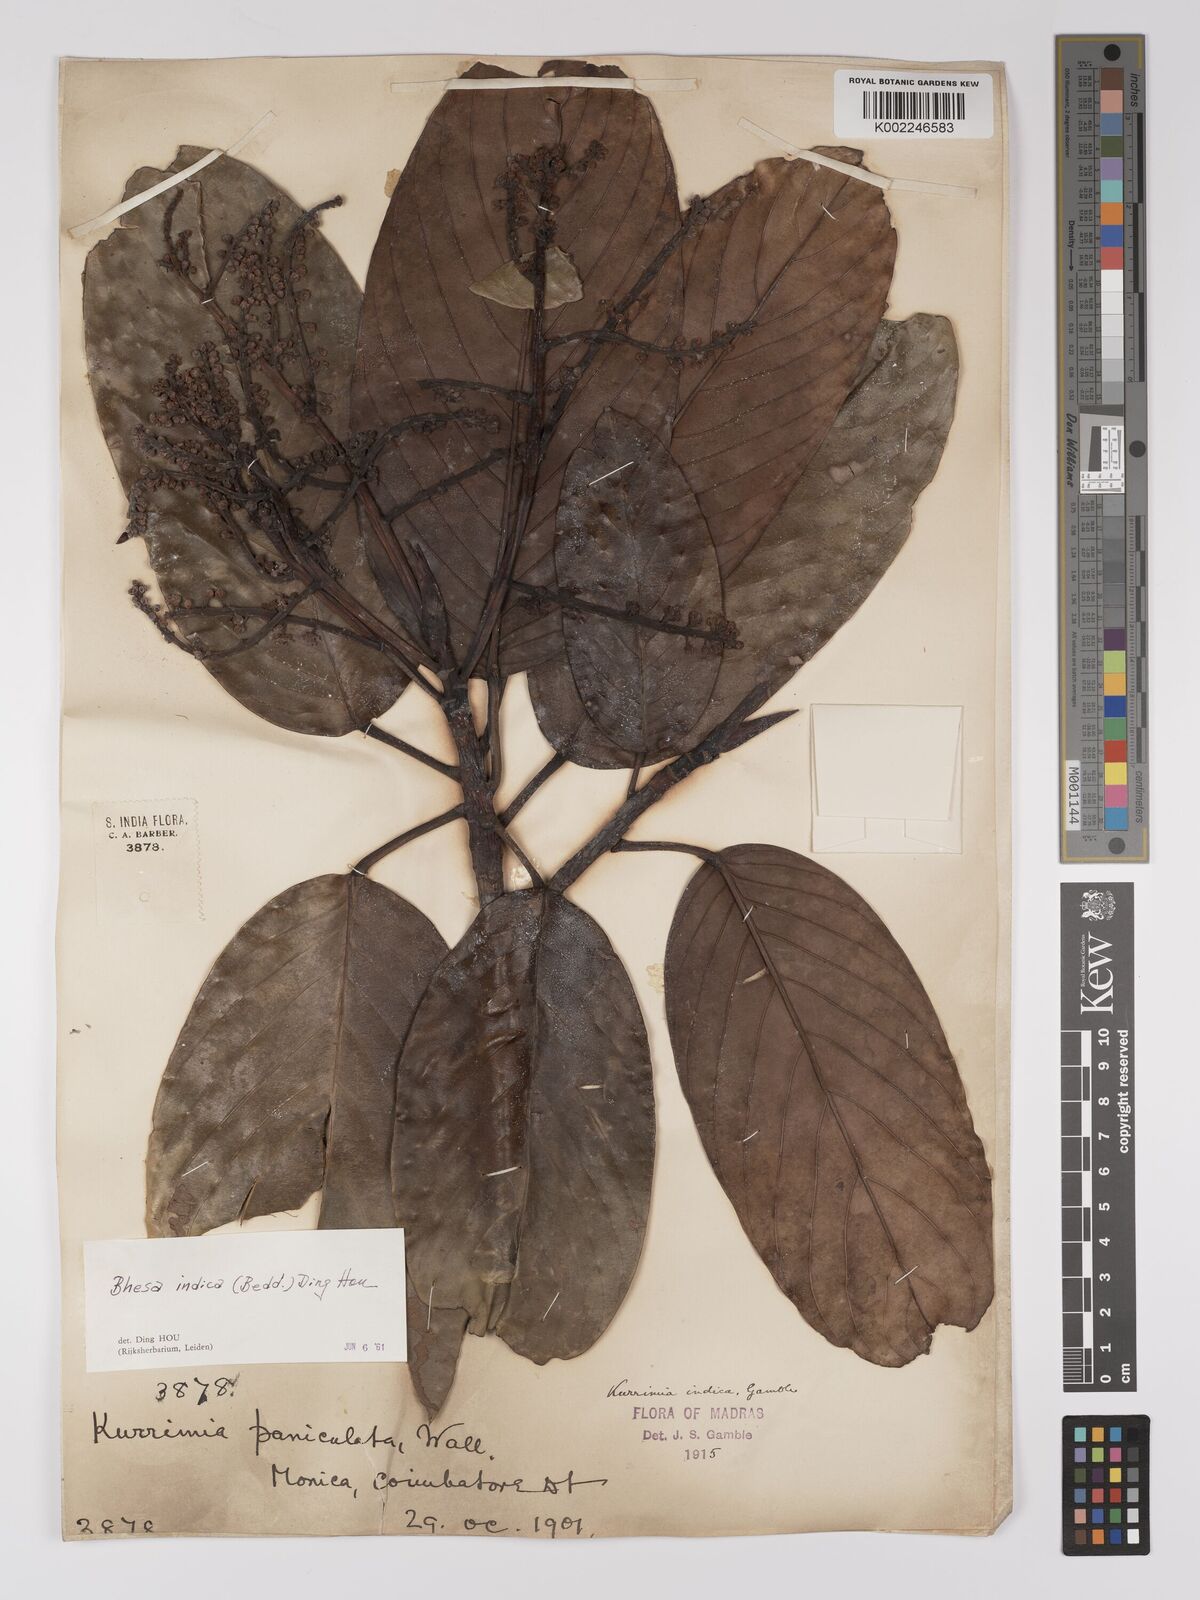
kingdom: Plantae
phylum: Tracheophyta
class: Magnoliopsida
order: Malpighiales
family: Centroplacaceae
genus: Bhesa
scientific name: Bhesa indica
